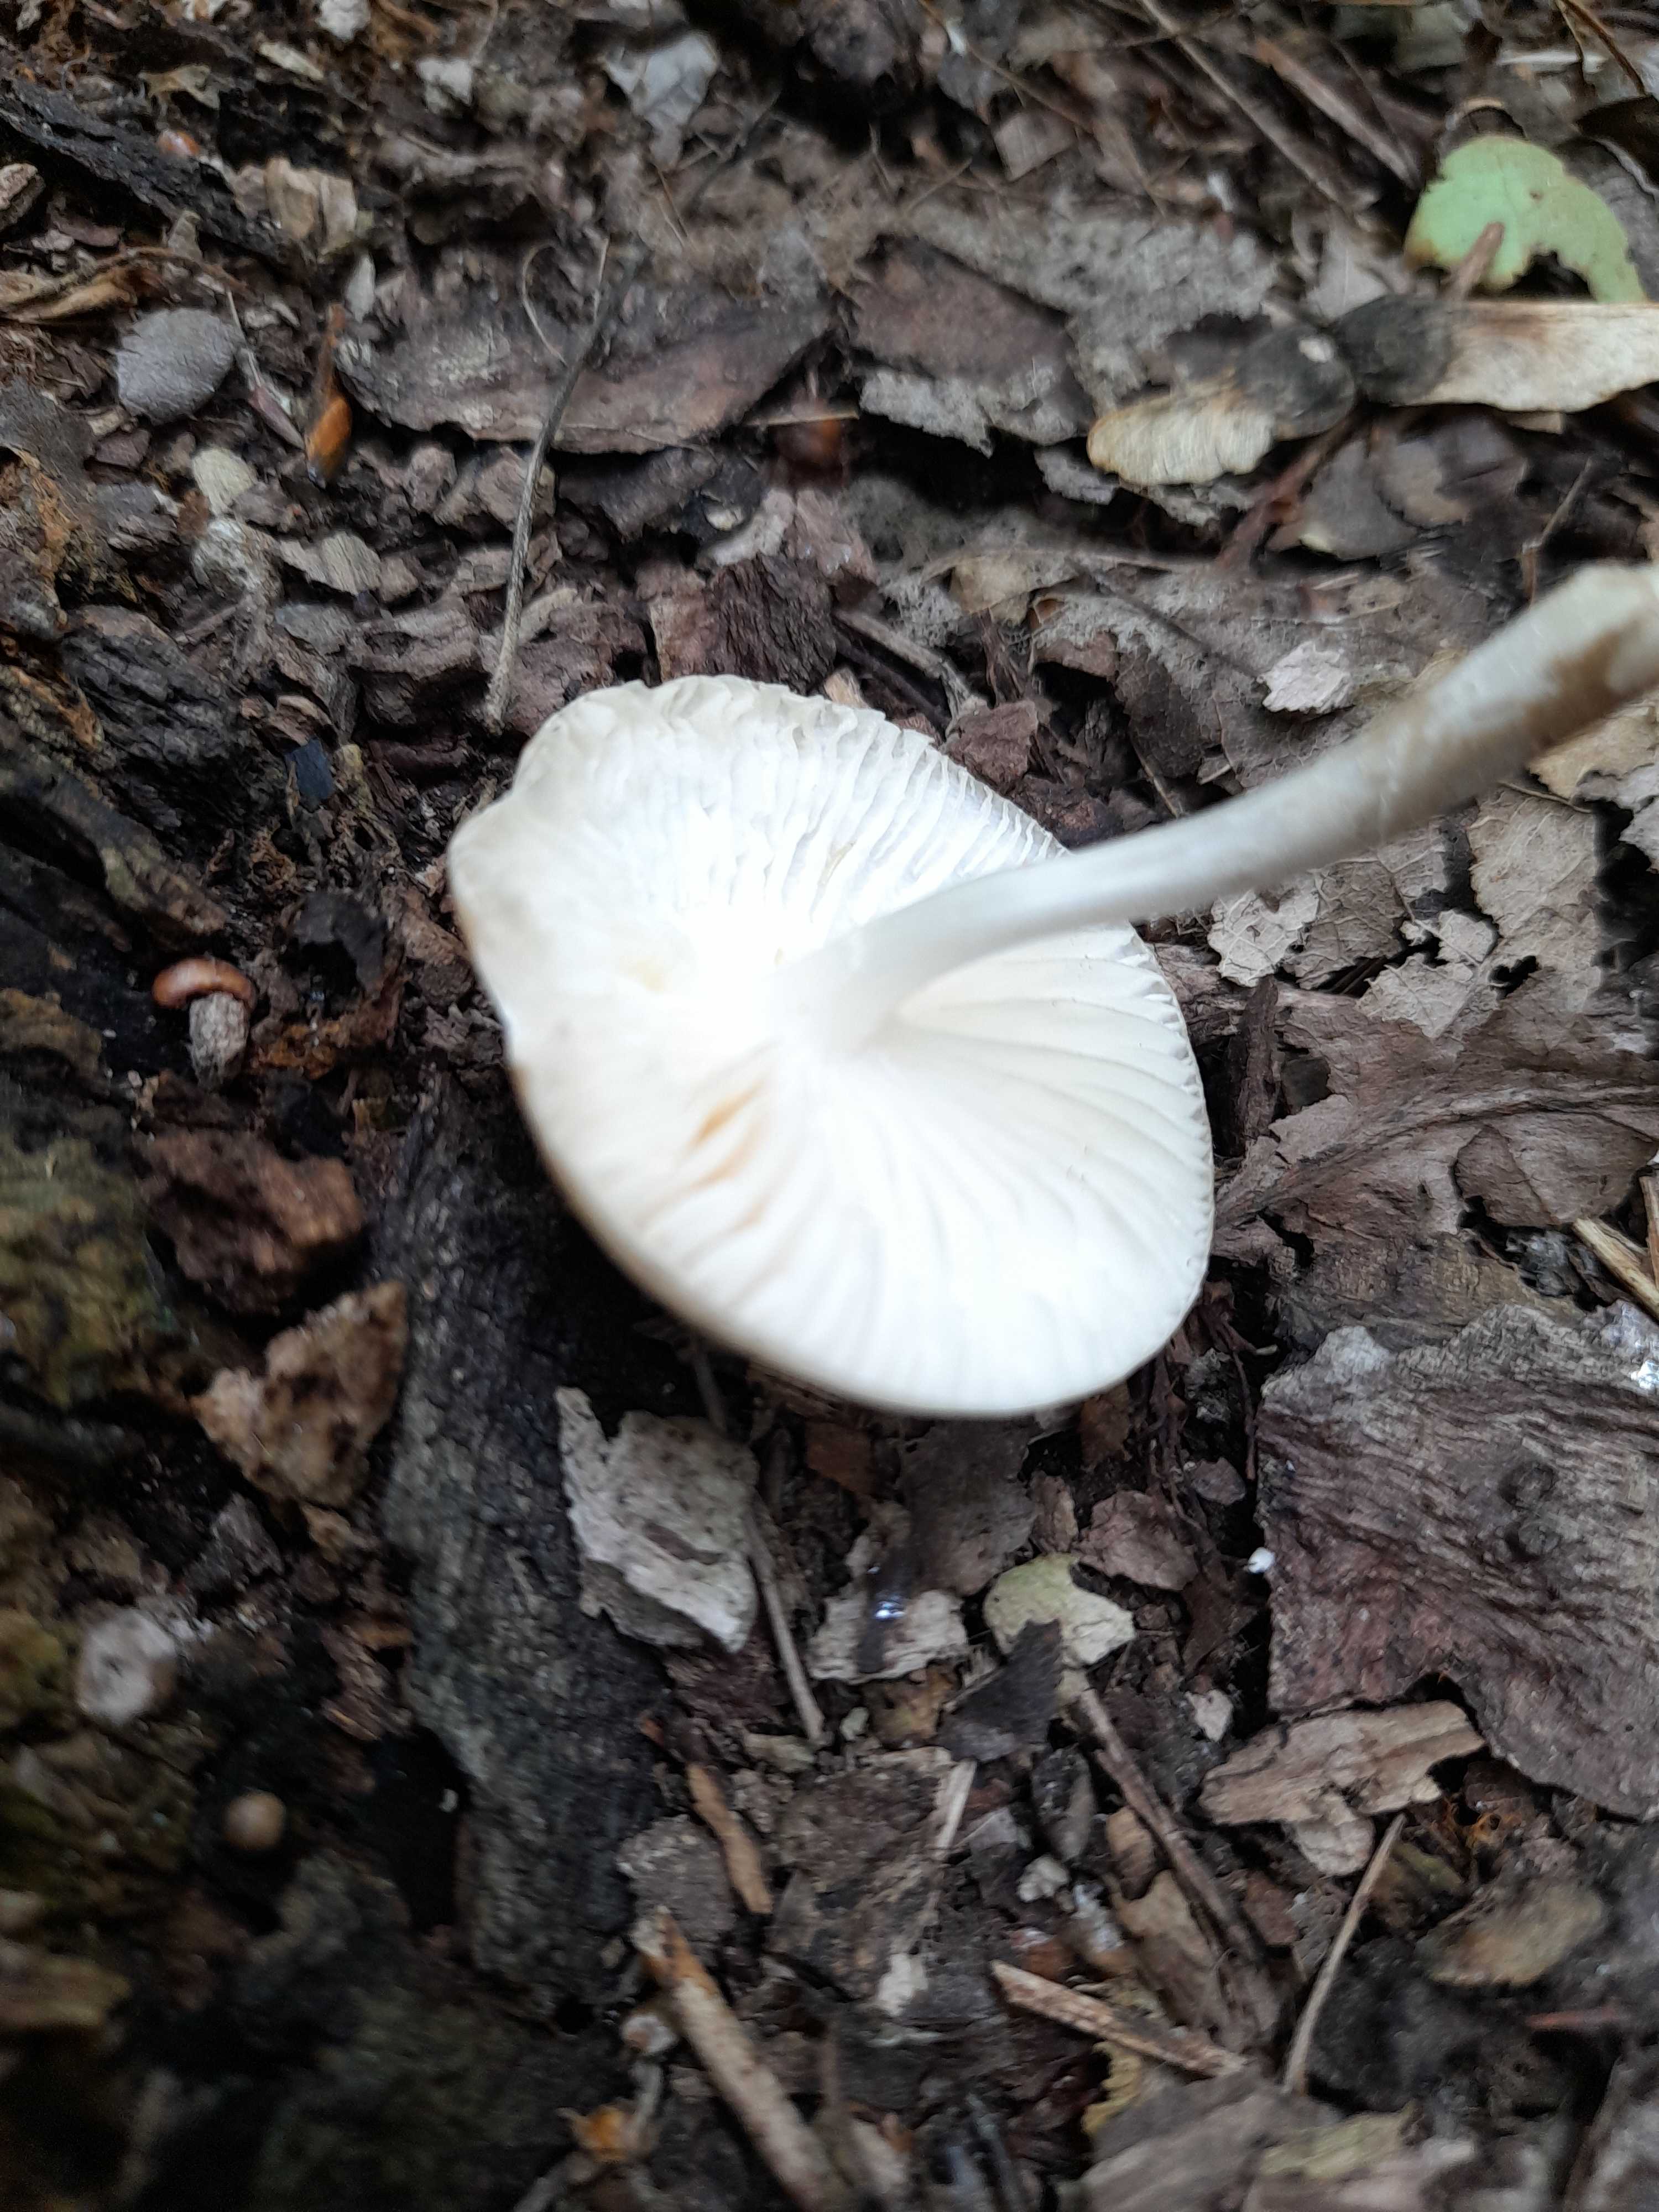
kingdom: Fungi
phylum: Basidiomycota
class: Agaricomycetes
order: Agaricales
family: Physalacriaceae
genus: Hymenopellis
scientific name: Hymenopellis radicata
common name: almindelig pælerodshat
